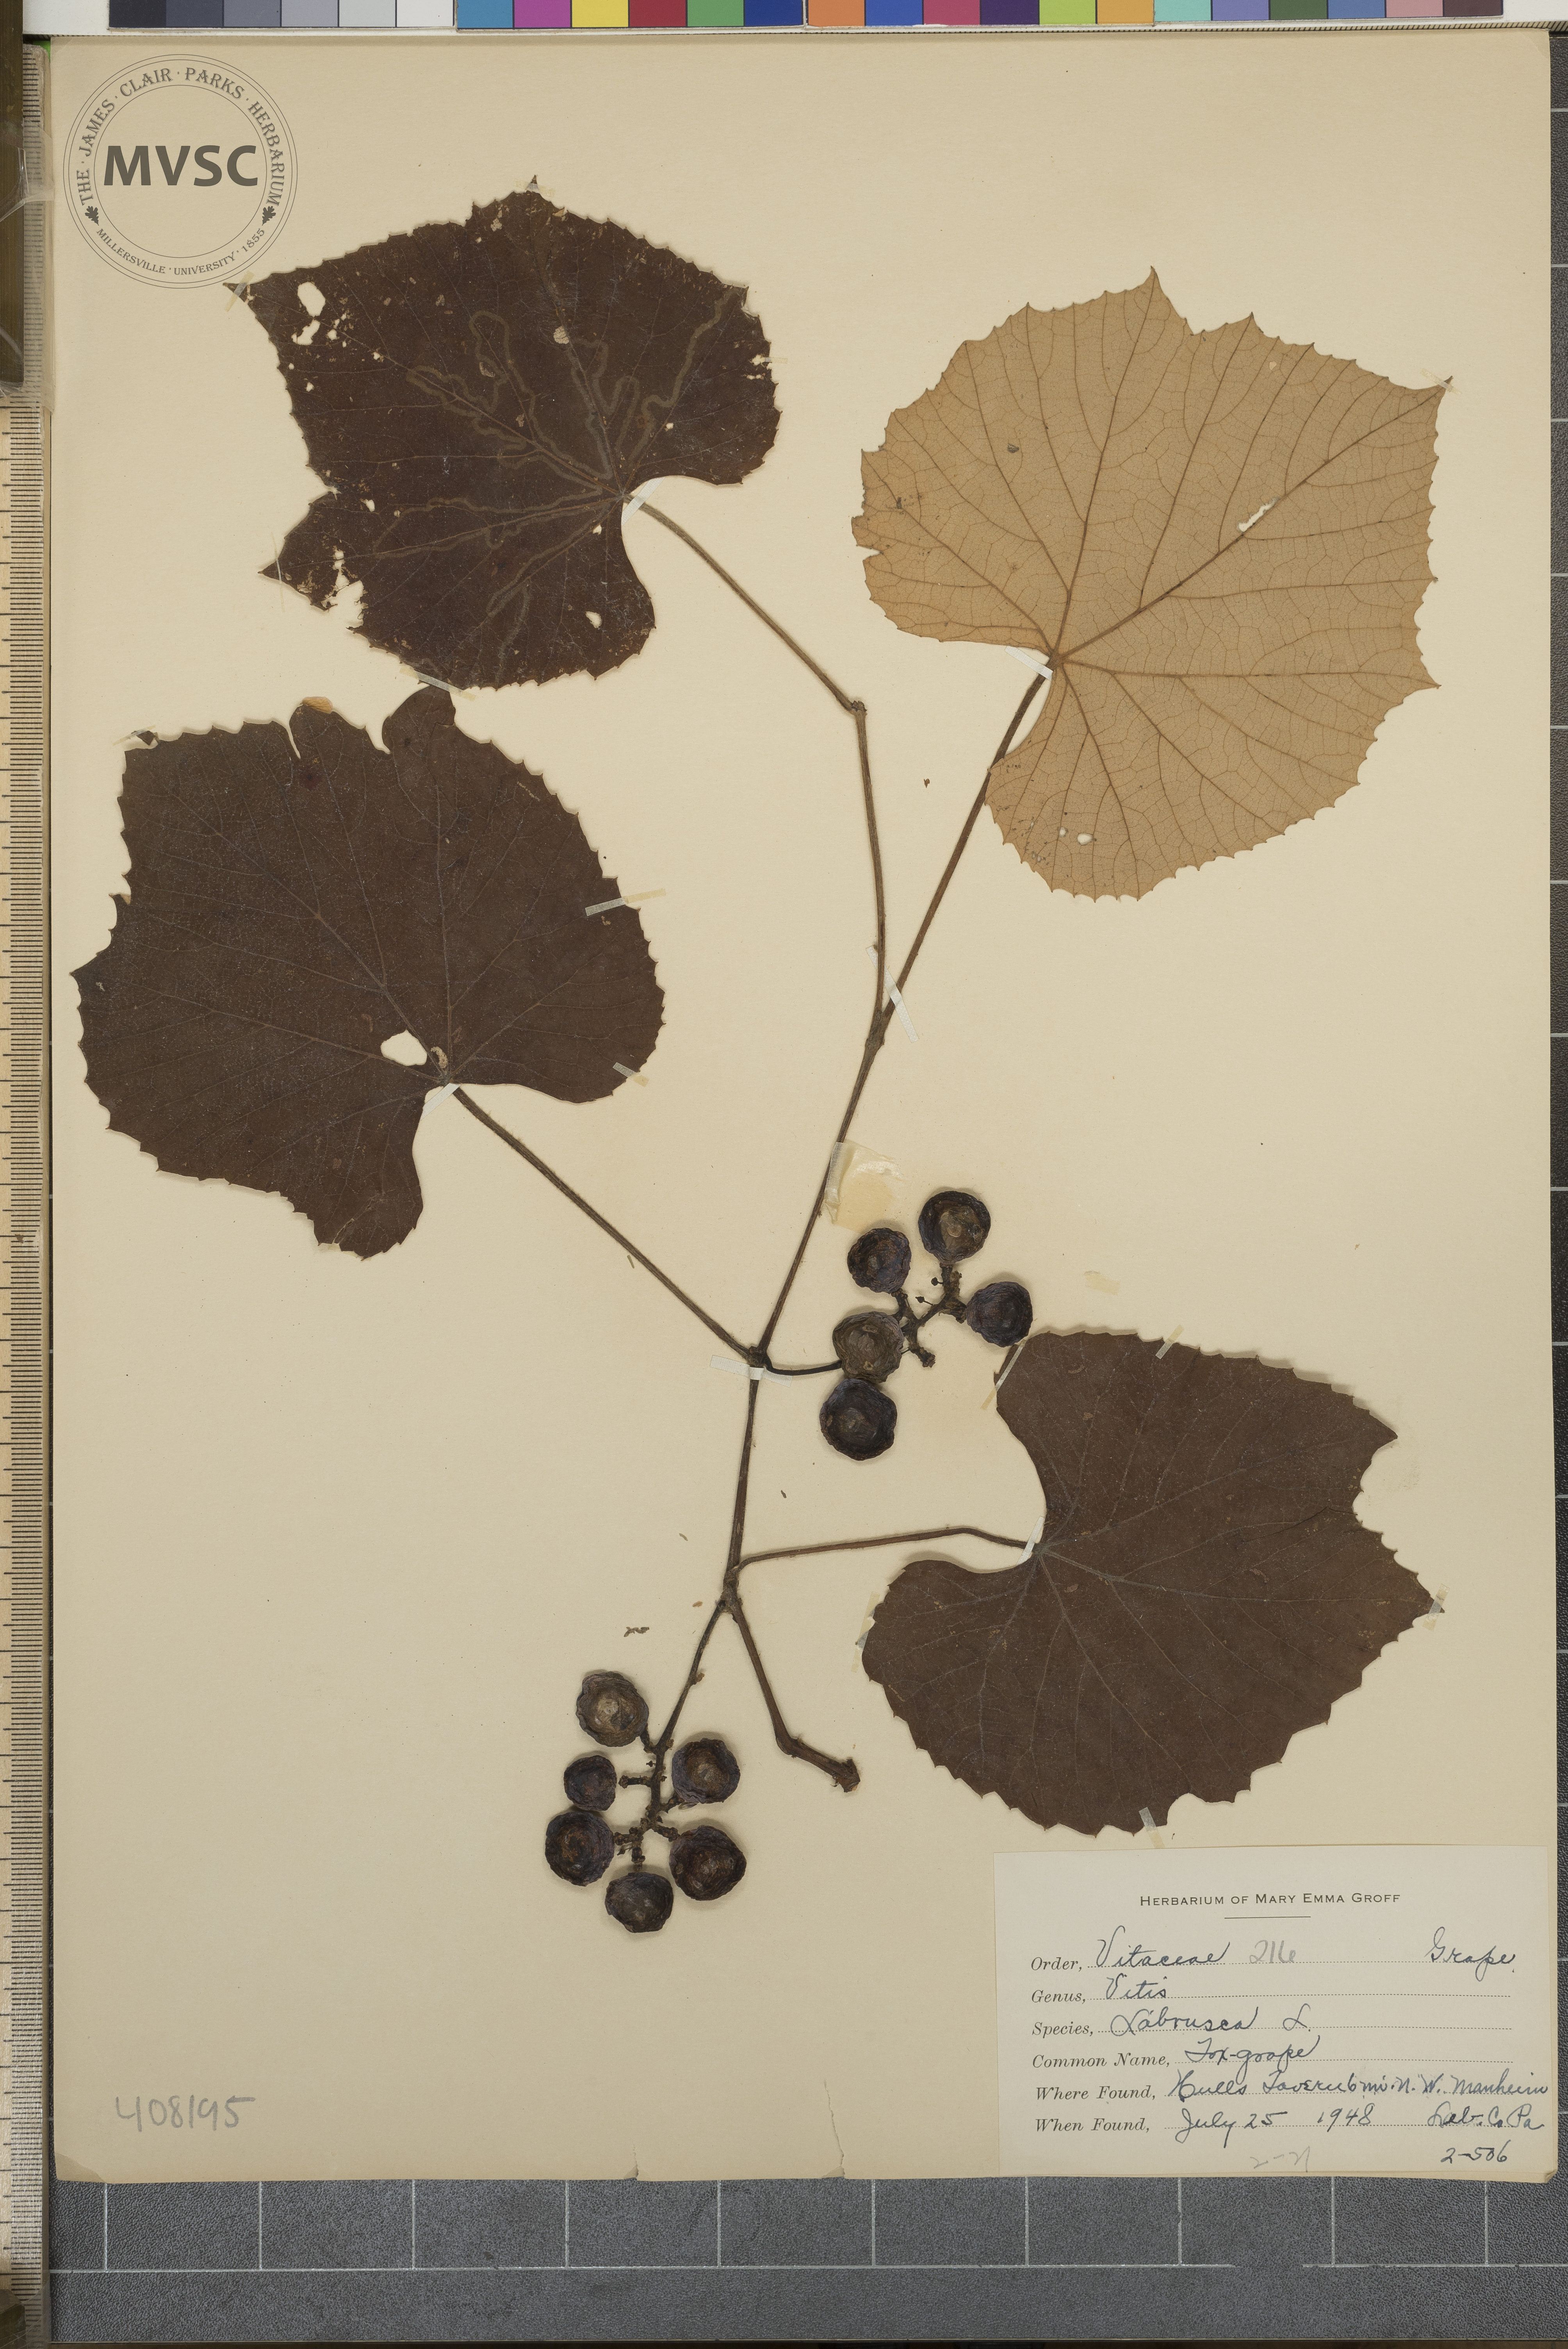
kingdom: Plantae
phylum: Tracheophyta
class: Magnoliopsida
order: Vitales
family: Vitaceae
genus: Vitis
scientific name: Vitis labrusca
